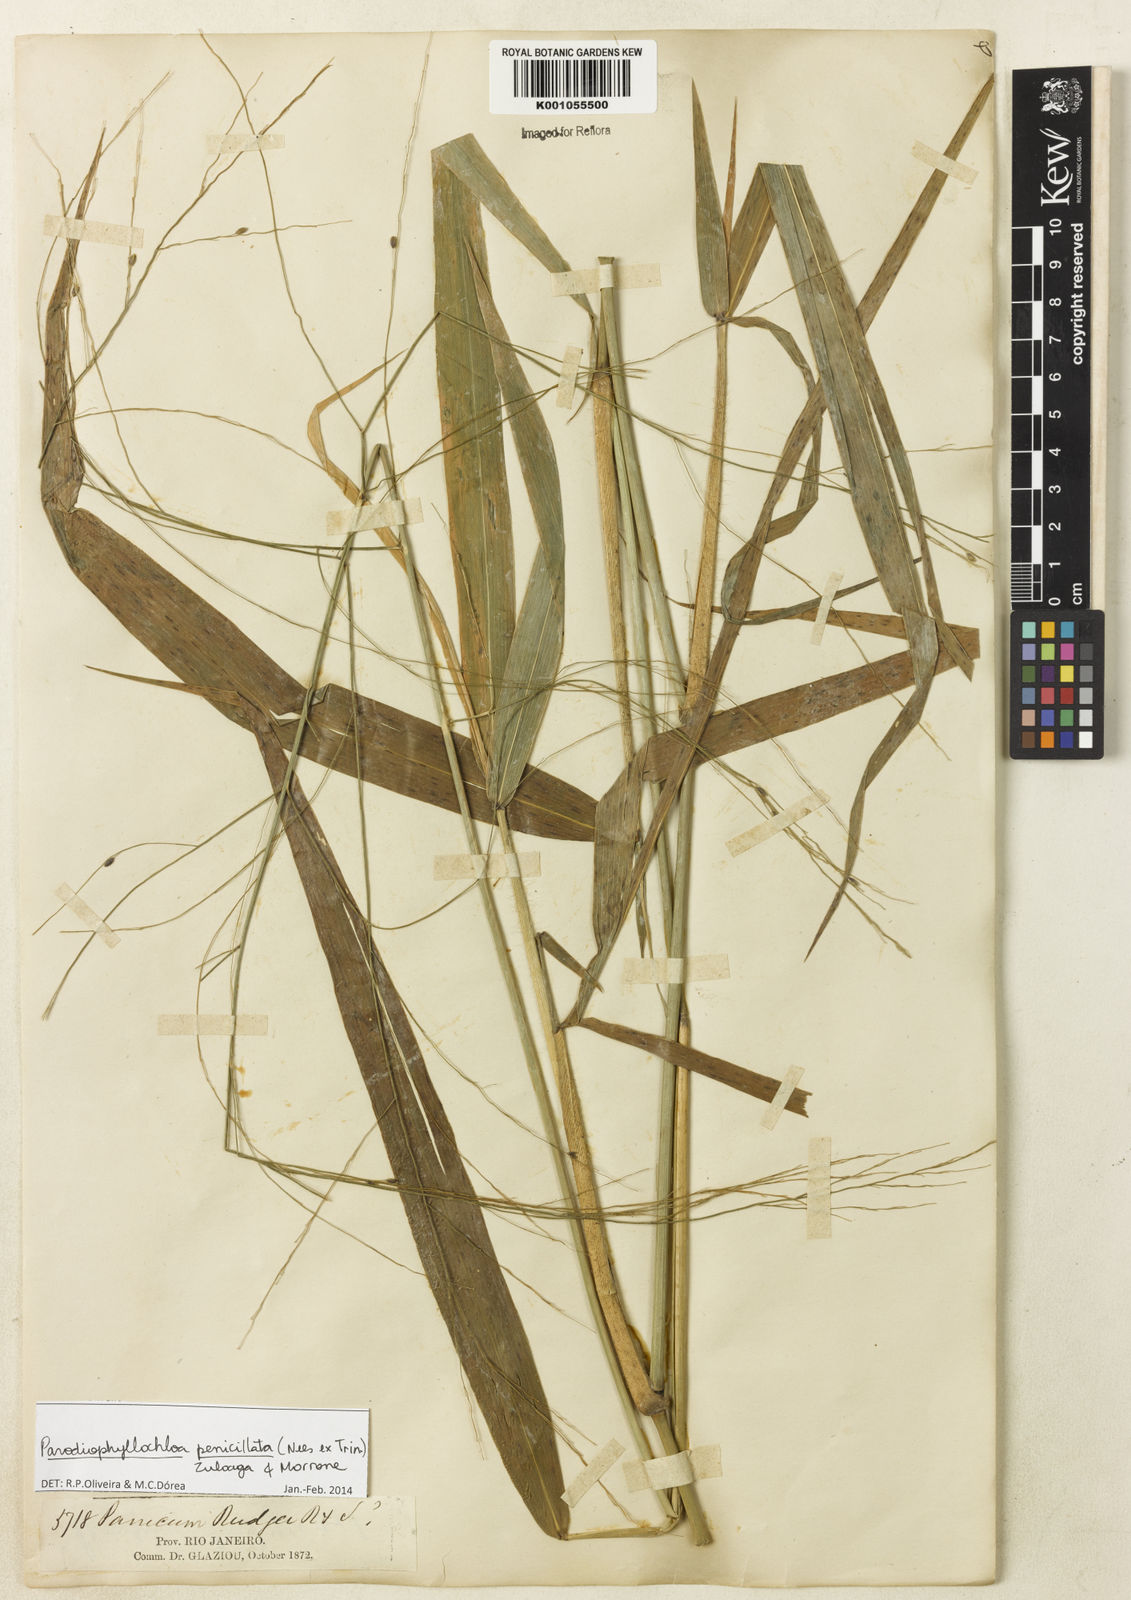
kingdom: Plantae
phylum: Tracheophyta
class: Liliopsida
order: Poales
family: Poaceae
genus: Panicum
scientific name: Panicum
